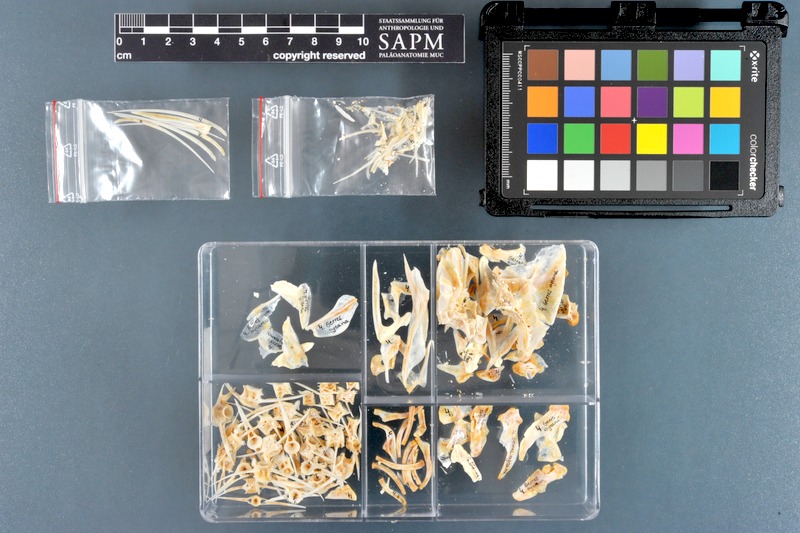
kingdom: Animalia
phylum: Chordata
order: Perciformes
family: Gerreidae
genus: Gerres
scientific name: Gerres oyena
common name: Common silver-biddy
